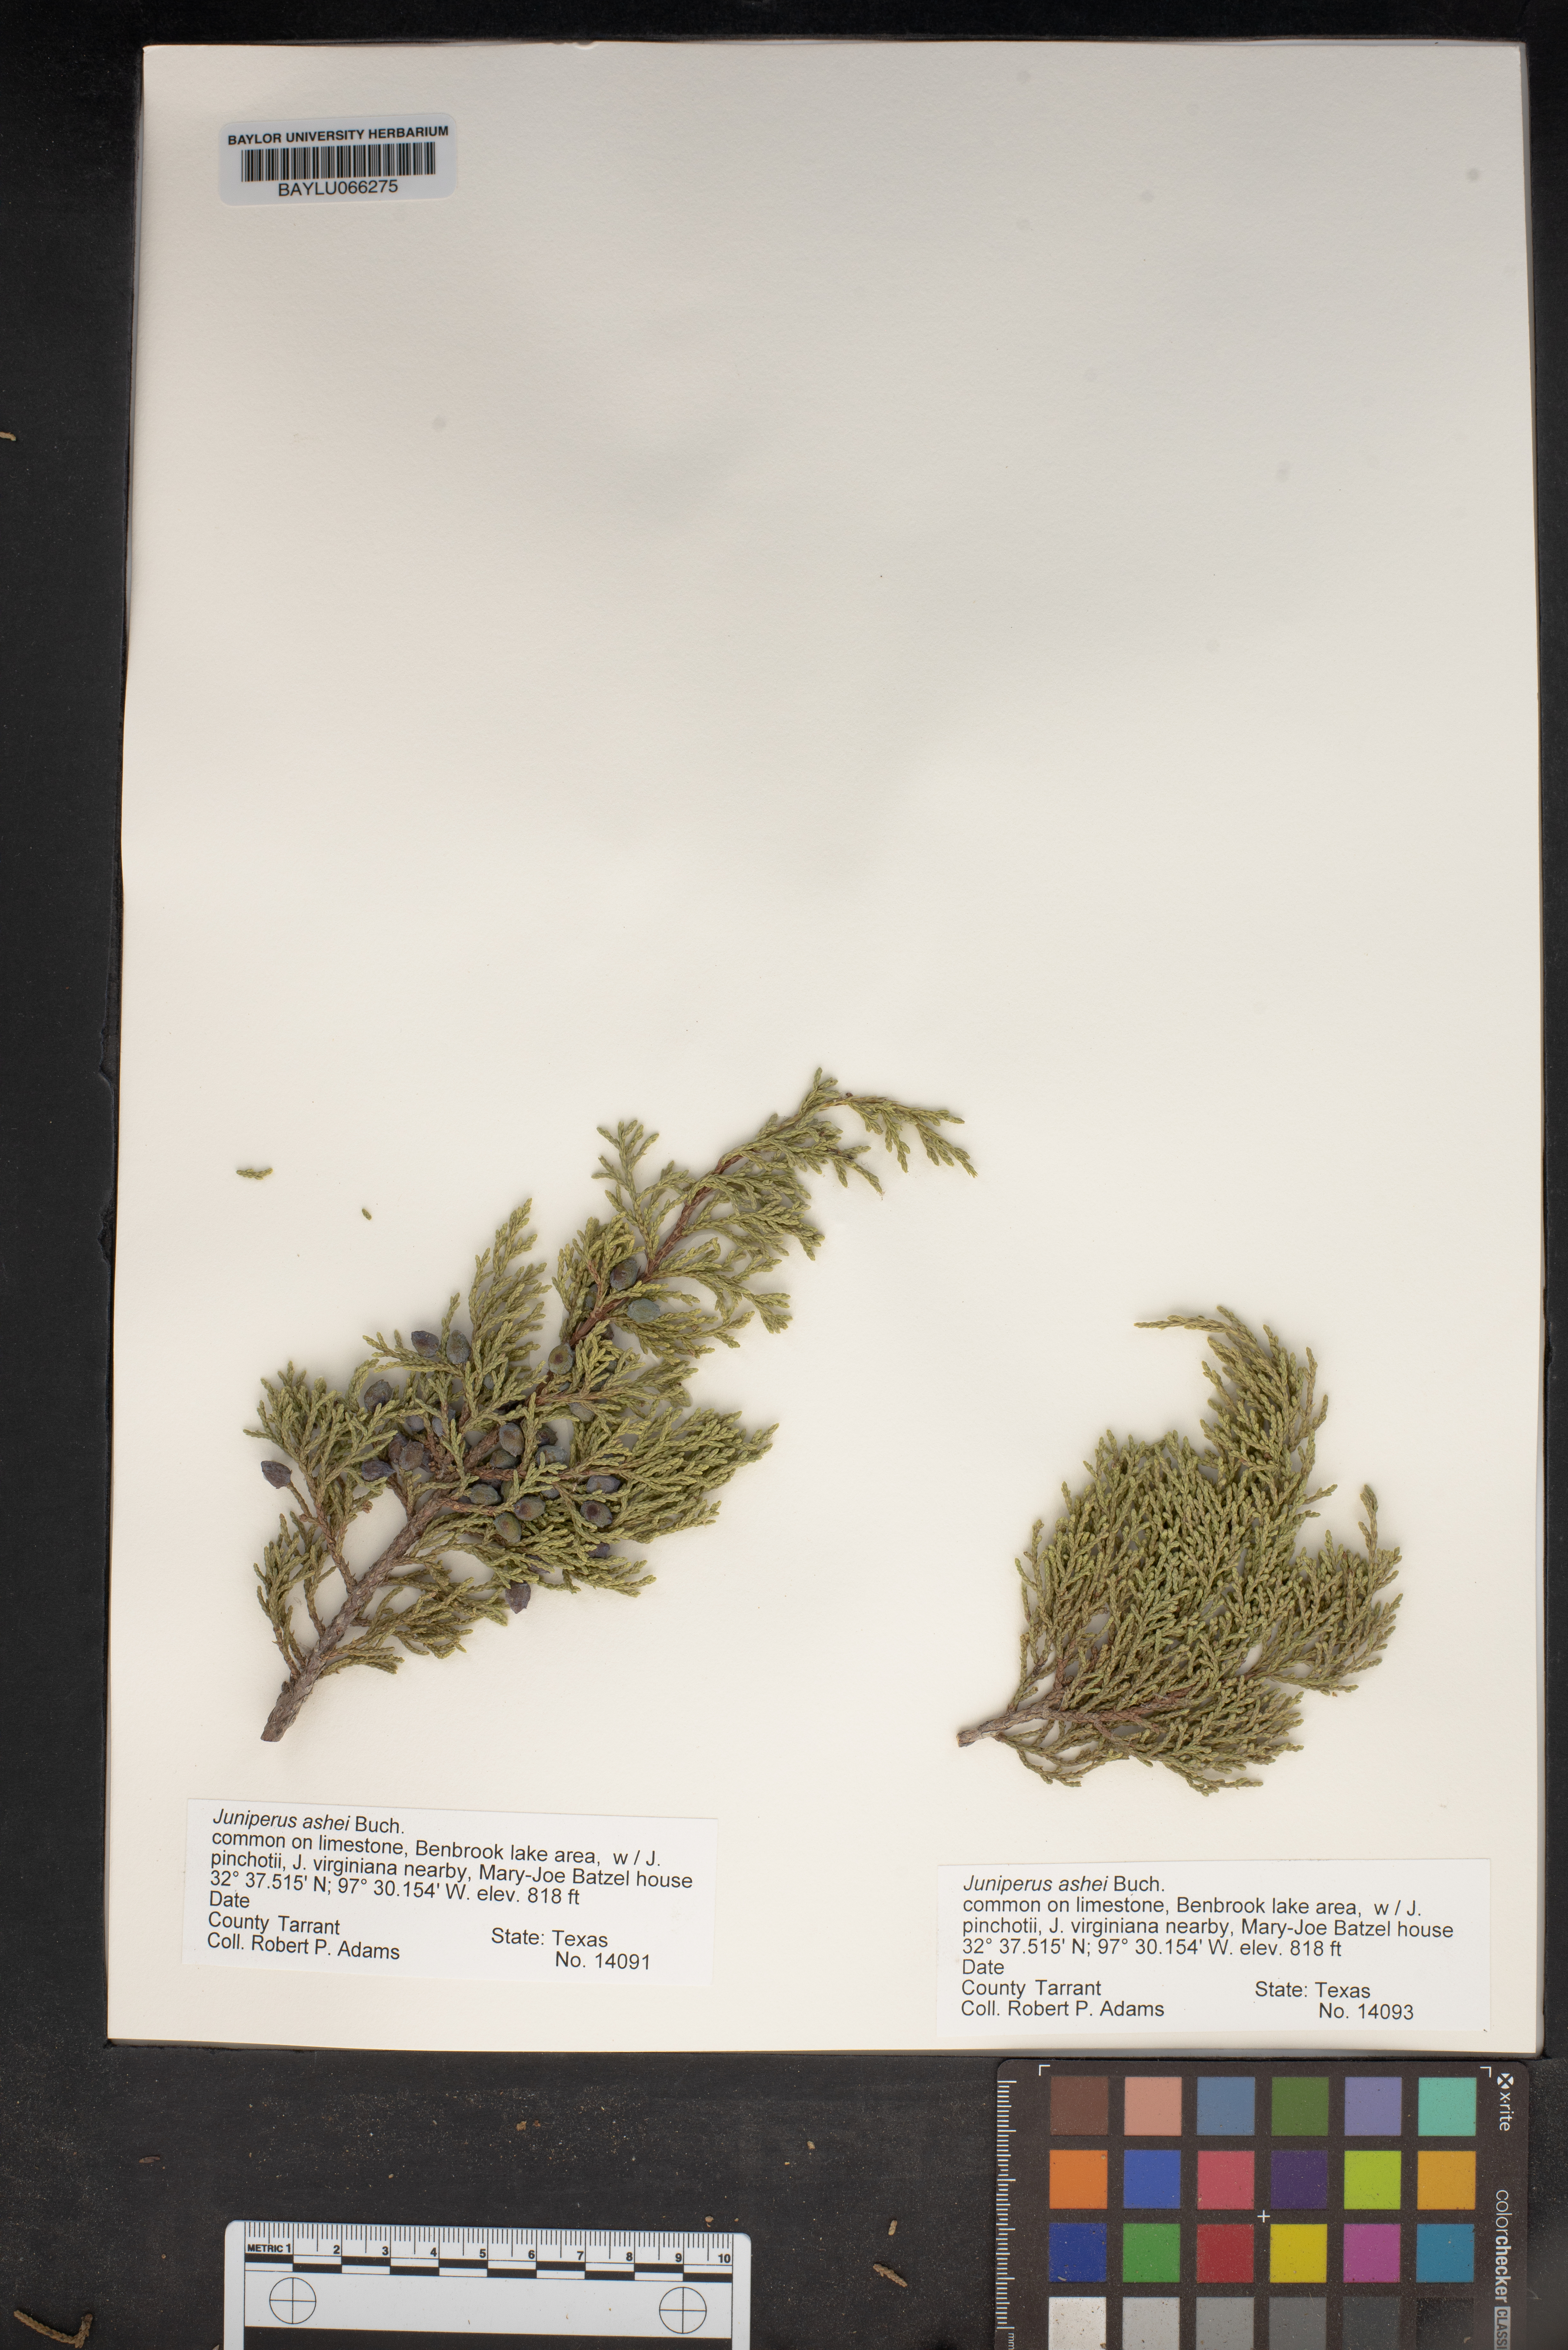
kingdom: Plantae
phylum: Tracheophyta
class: Pinopsida
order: Pinales
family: Cupressaceae
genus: Juniperus
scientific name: Juniperus ashei
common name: Mexican juniper
